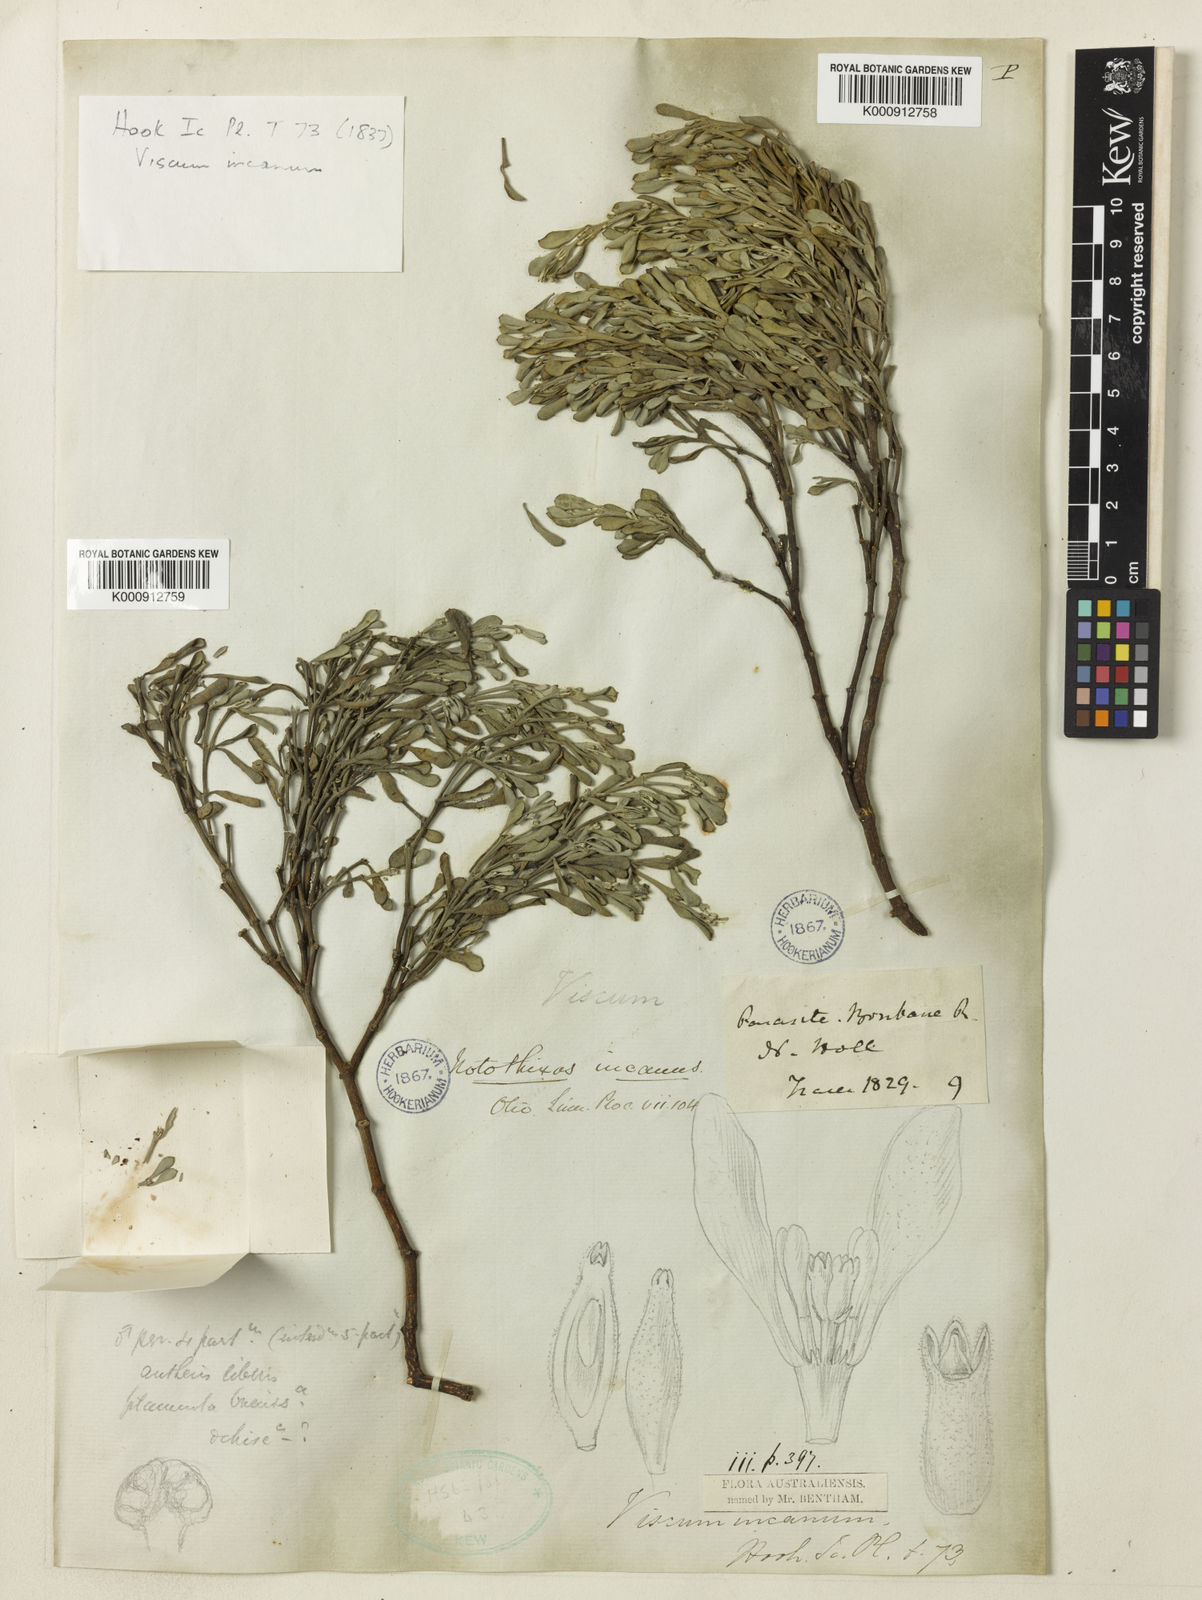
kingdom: Plantae
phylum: Tracheophyta
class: Magnoliopsida
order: Santalales
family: Viscaceae
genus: Notothixos
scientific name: Notothixos incanus
